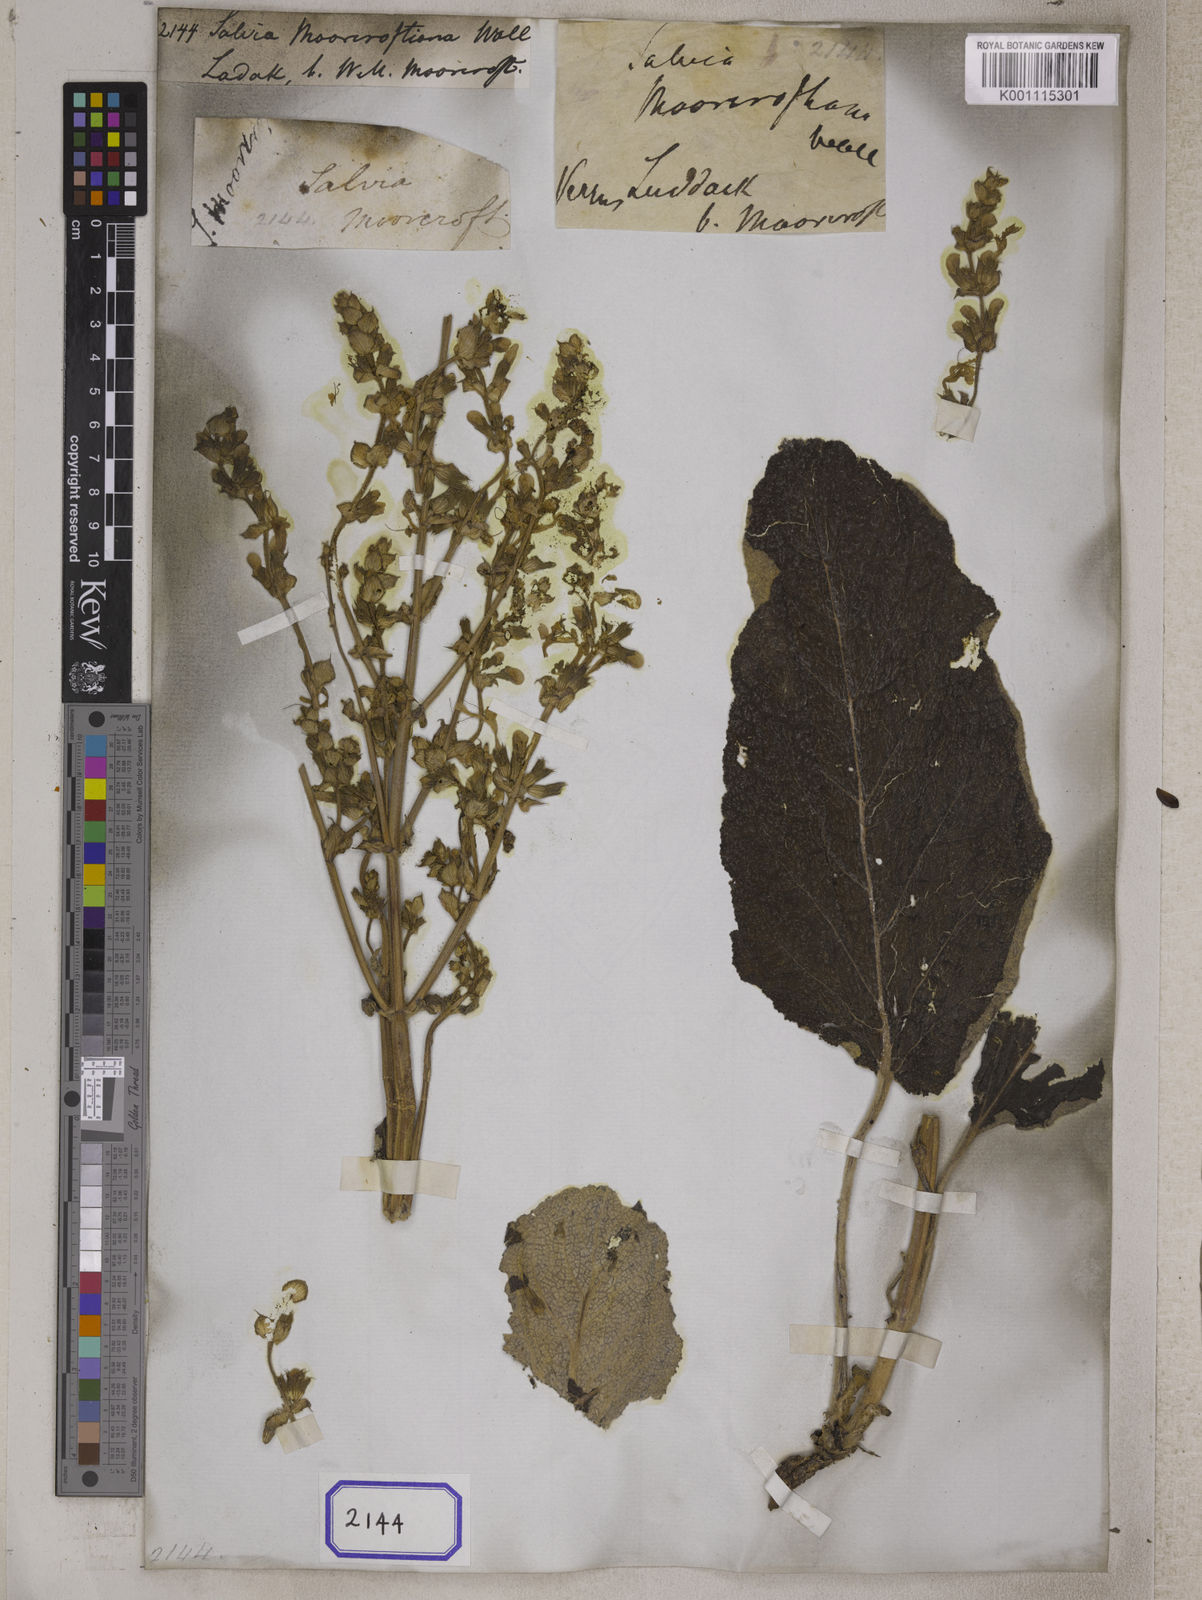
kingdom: Plantae
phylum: Tracheophyta
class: Magnoliopsida
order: Lamiales
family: Lamiaceae
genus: Salvia
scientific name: Salvia moorcroftiana
